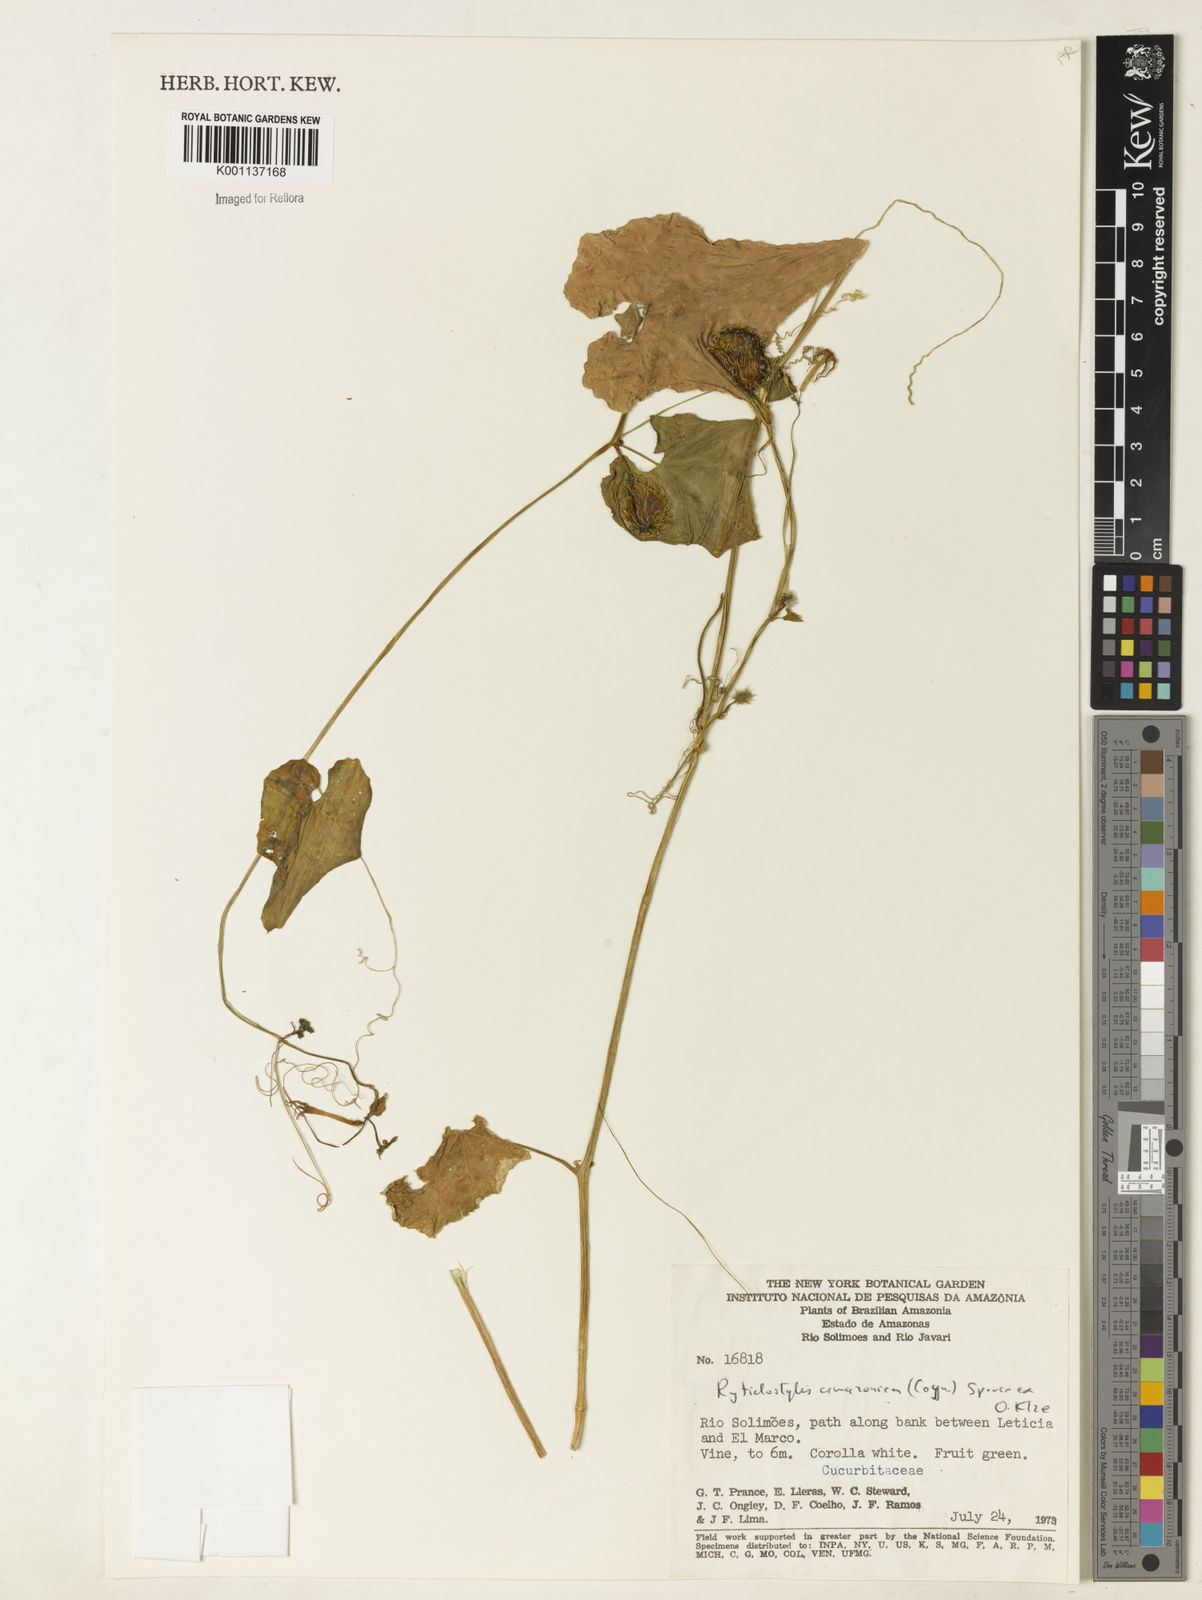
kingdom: Plantae
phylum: Tracheophyta
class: Magnoliopsida
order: Cucurbitales
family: Cucurbitaceae
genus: Cyclanthera
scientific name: Cyclanthera carthagenensis
